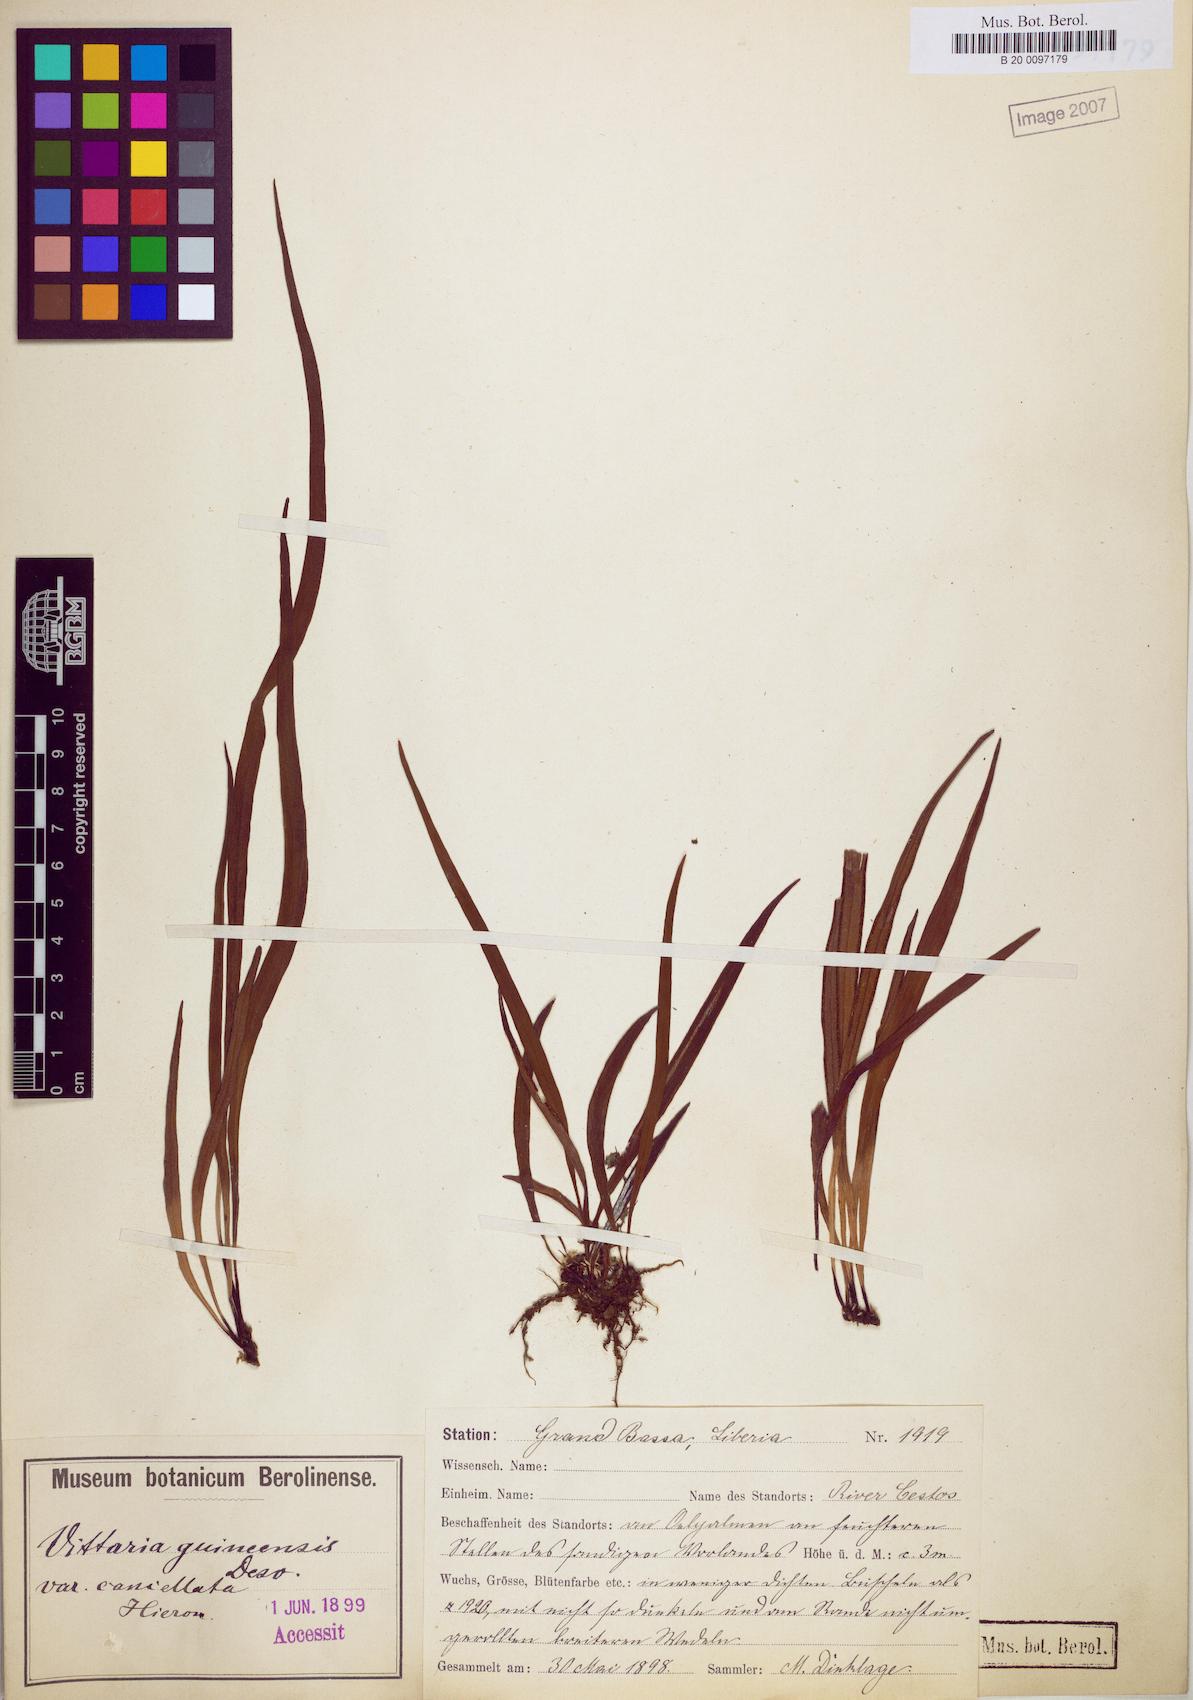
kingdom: Plantae
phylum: Tracheophyta
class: Polypodiopsida
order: Polypodiales
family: Pteridaceae
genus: Haplopteris
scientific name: Haplopteris guineensis
